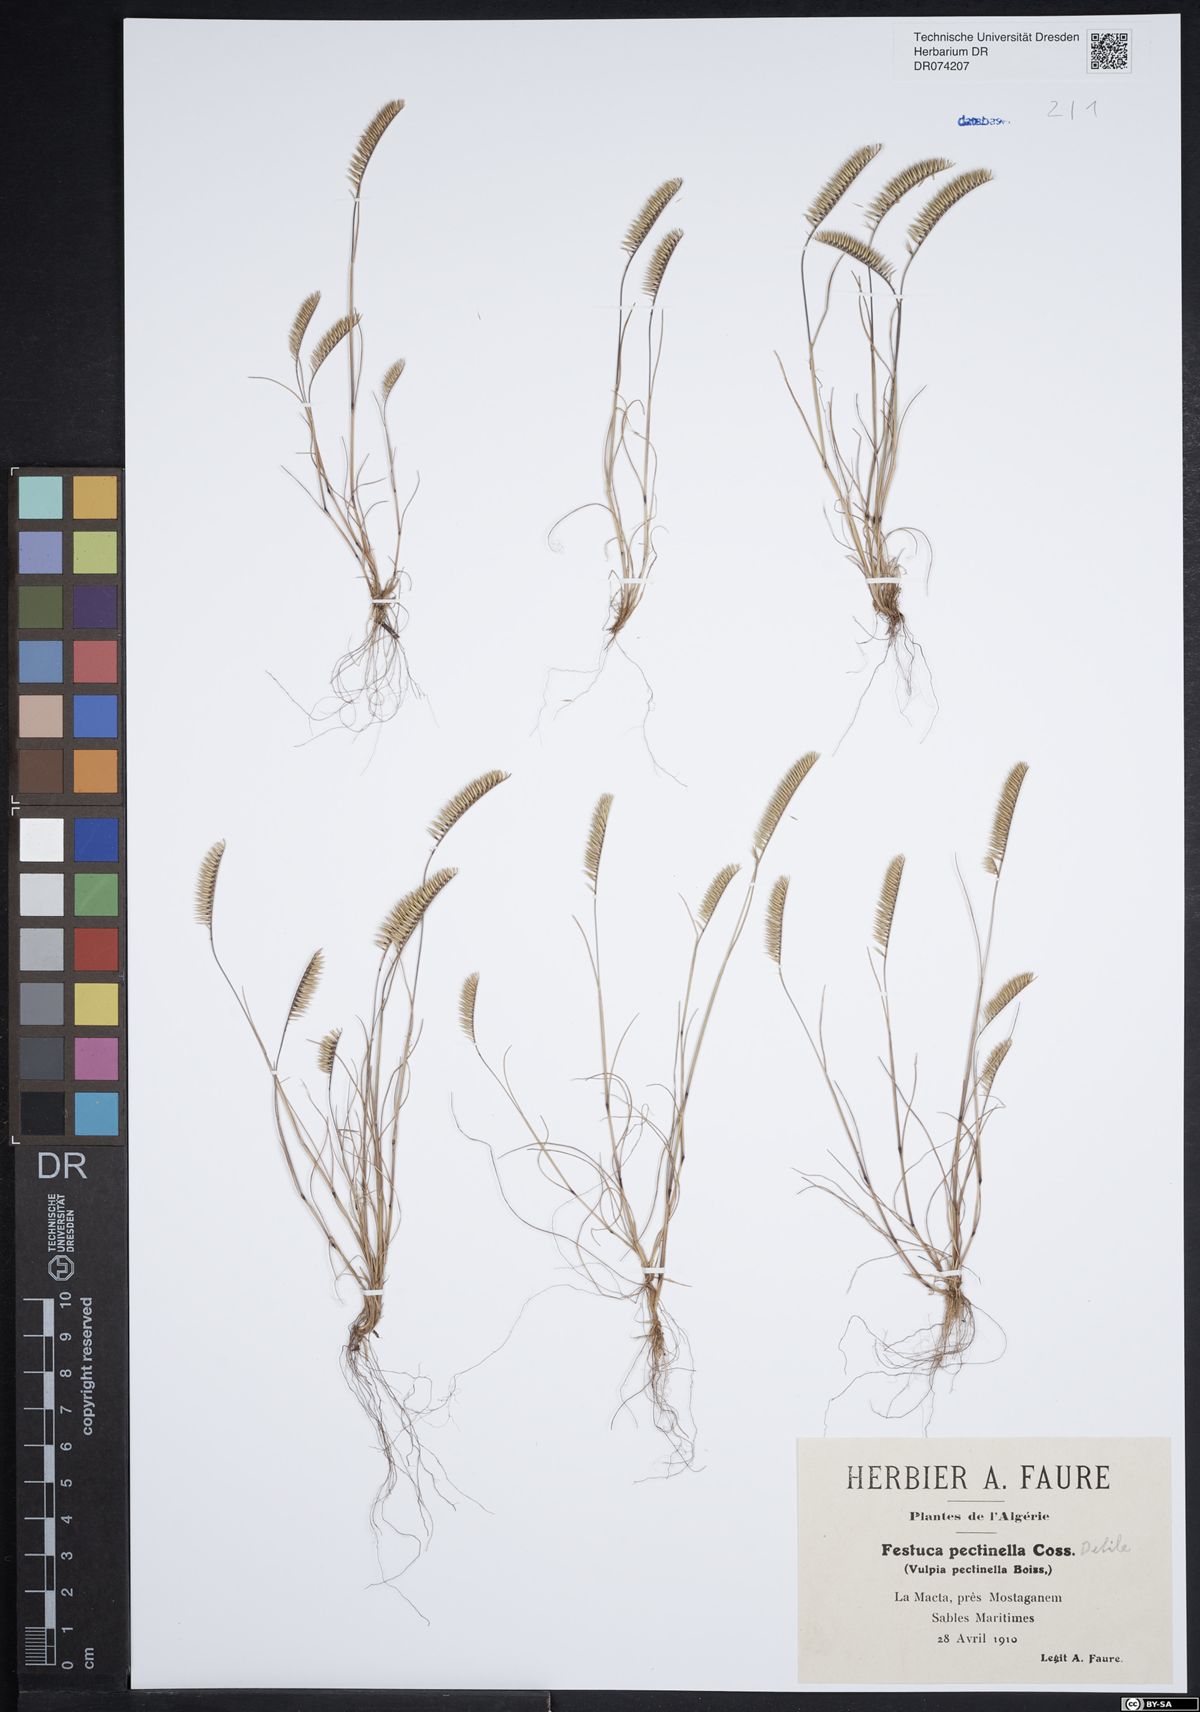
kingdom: Plantae
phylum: Tracheophyta
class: Liliopsida
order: Poales
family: Poaceae
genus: Festuca
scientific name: Festuca pectinella
